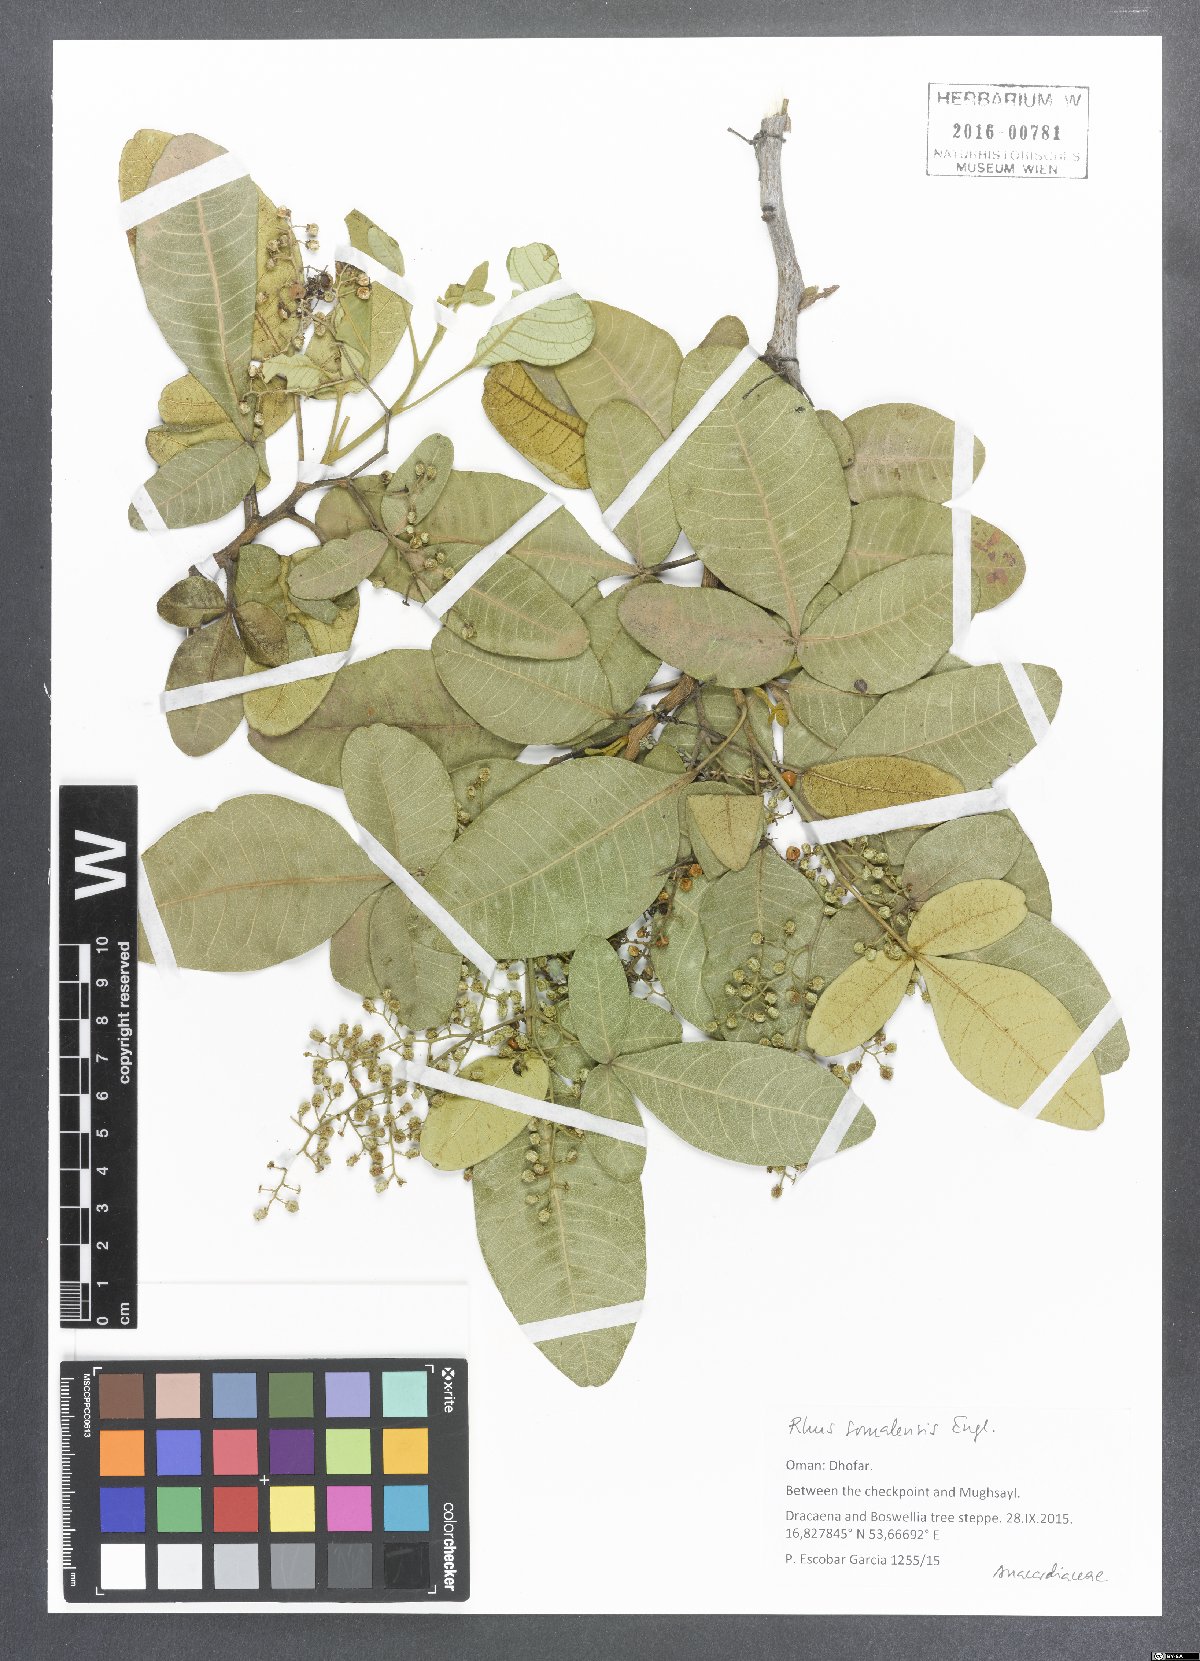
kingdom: Plantae
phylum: Tracheophyta
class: Magnoliopsida
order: Sapindales
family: Anacardiaceae
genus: Searsia
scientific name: Searsia somalensis
